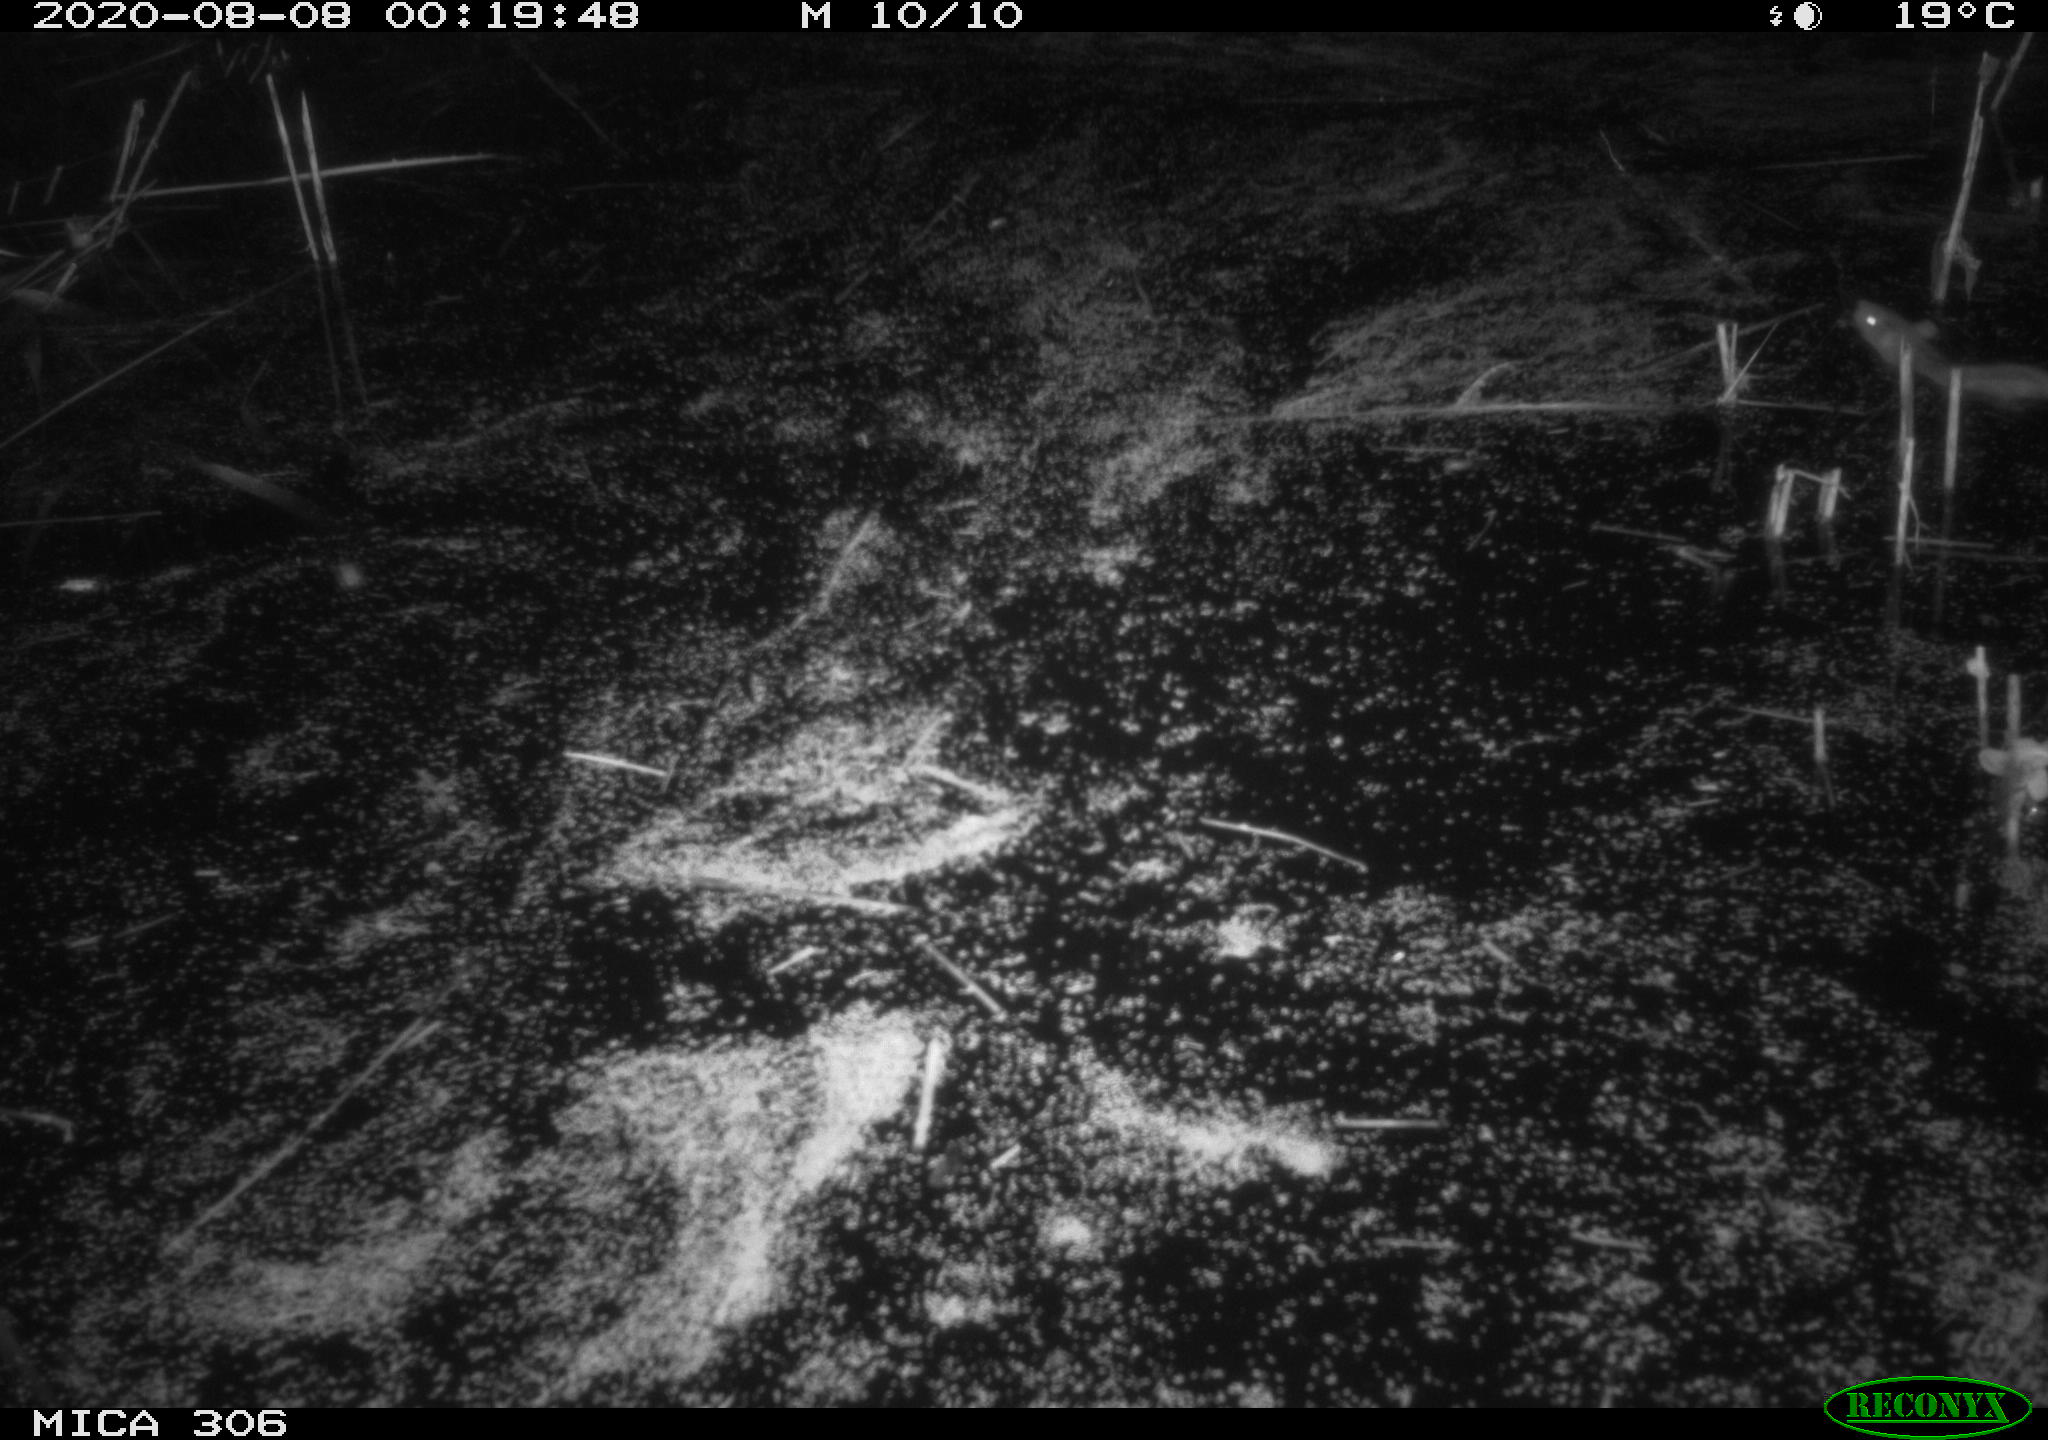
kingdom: Animalia
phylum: Chordata
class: Mammalia
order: Rodentia
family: Muridae
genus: Rattus
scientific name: Rattus norvegicus
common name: Brown rat
